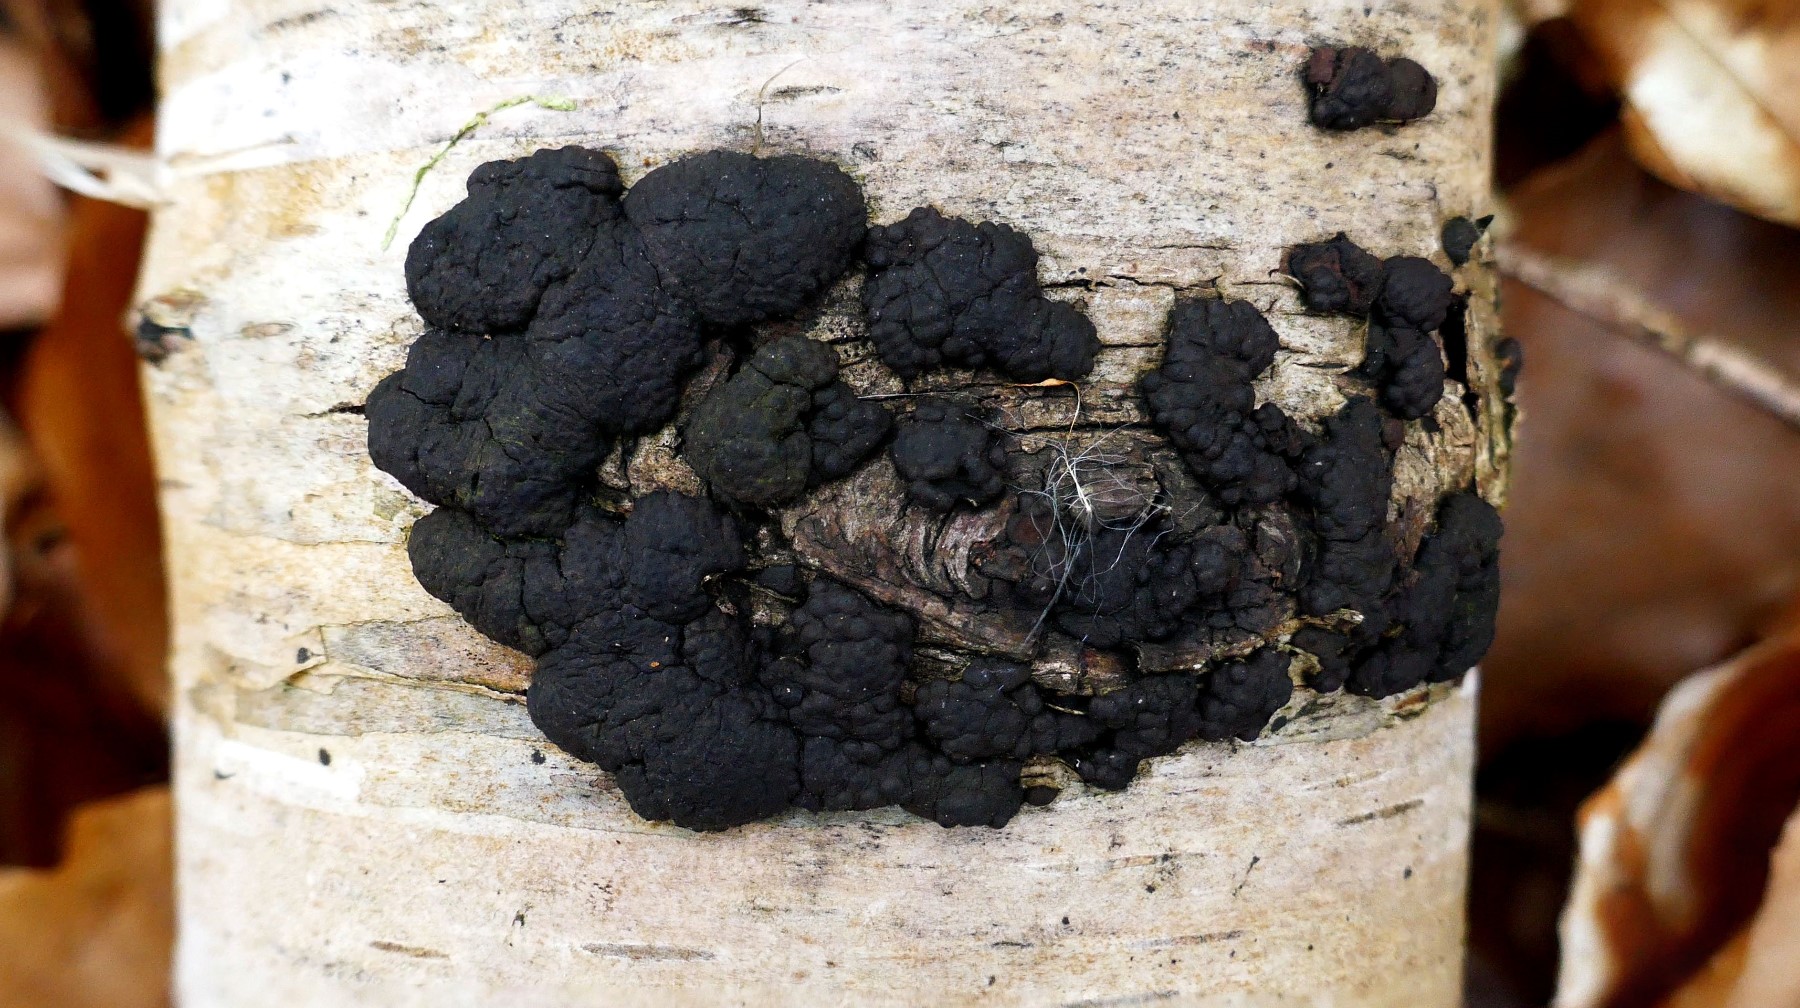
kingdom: Fungi
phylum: Ascomycota
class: Sordariomycetes
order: Xylariales
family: Hypoxylaceae
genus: Jackrogersella
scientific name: Jackrogersella multiformis
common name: foranderlig kulbær
